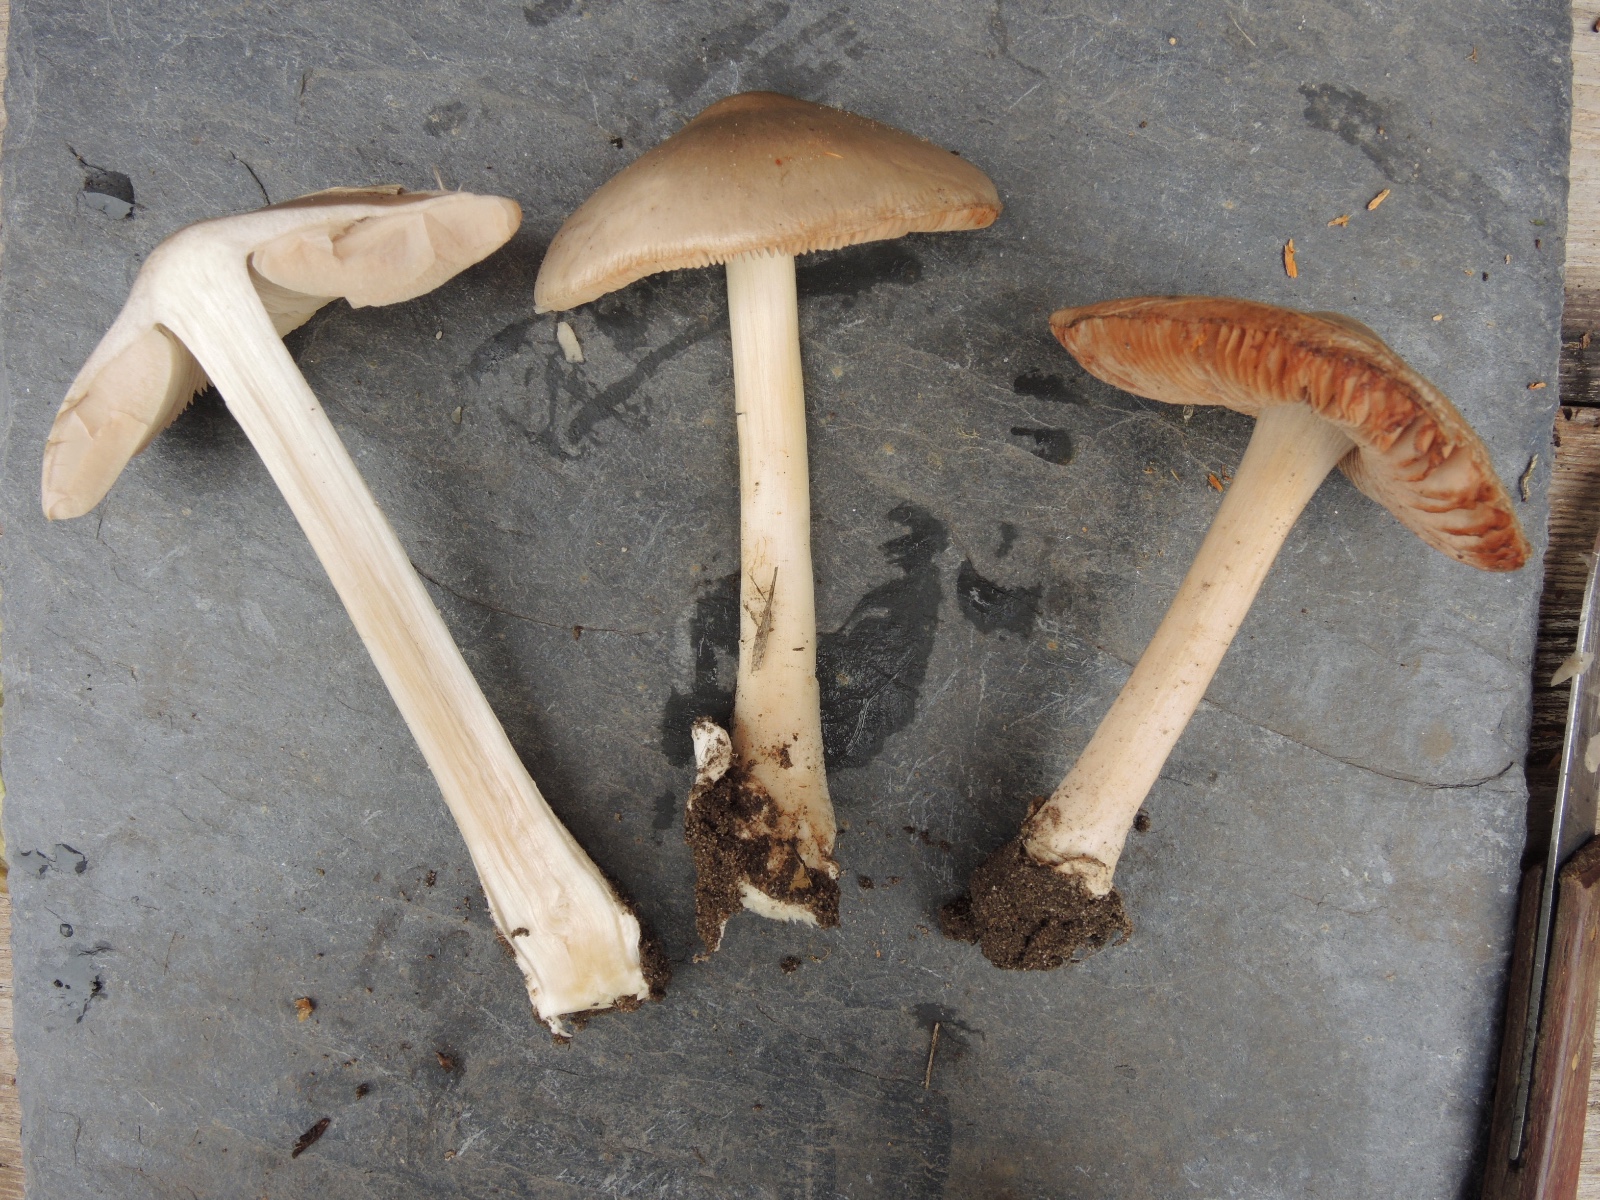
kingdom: Fungi
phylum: Basidiomycota
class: Agaricomycetes
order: Agaricales
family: Pluteaceae
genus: Volvopluteus
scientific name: Volvopluteus gloiocephalus
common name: høj posesvamp
